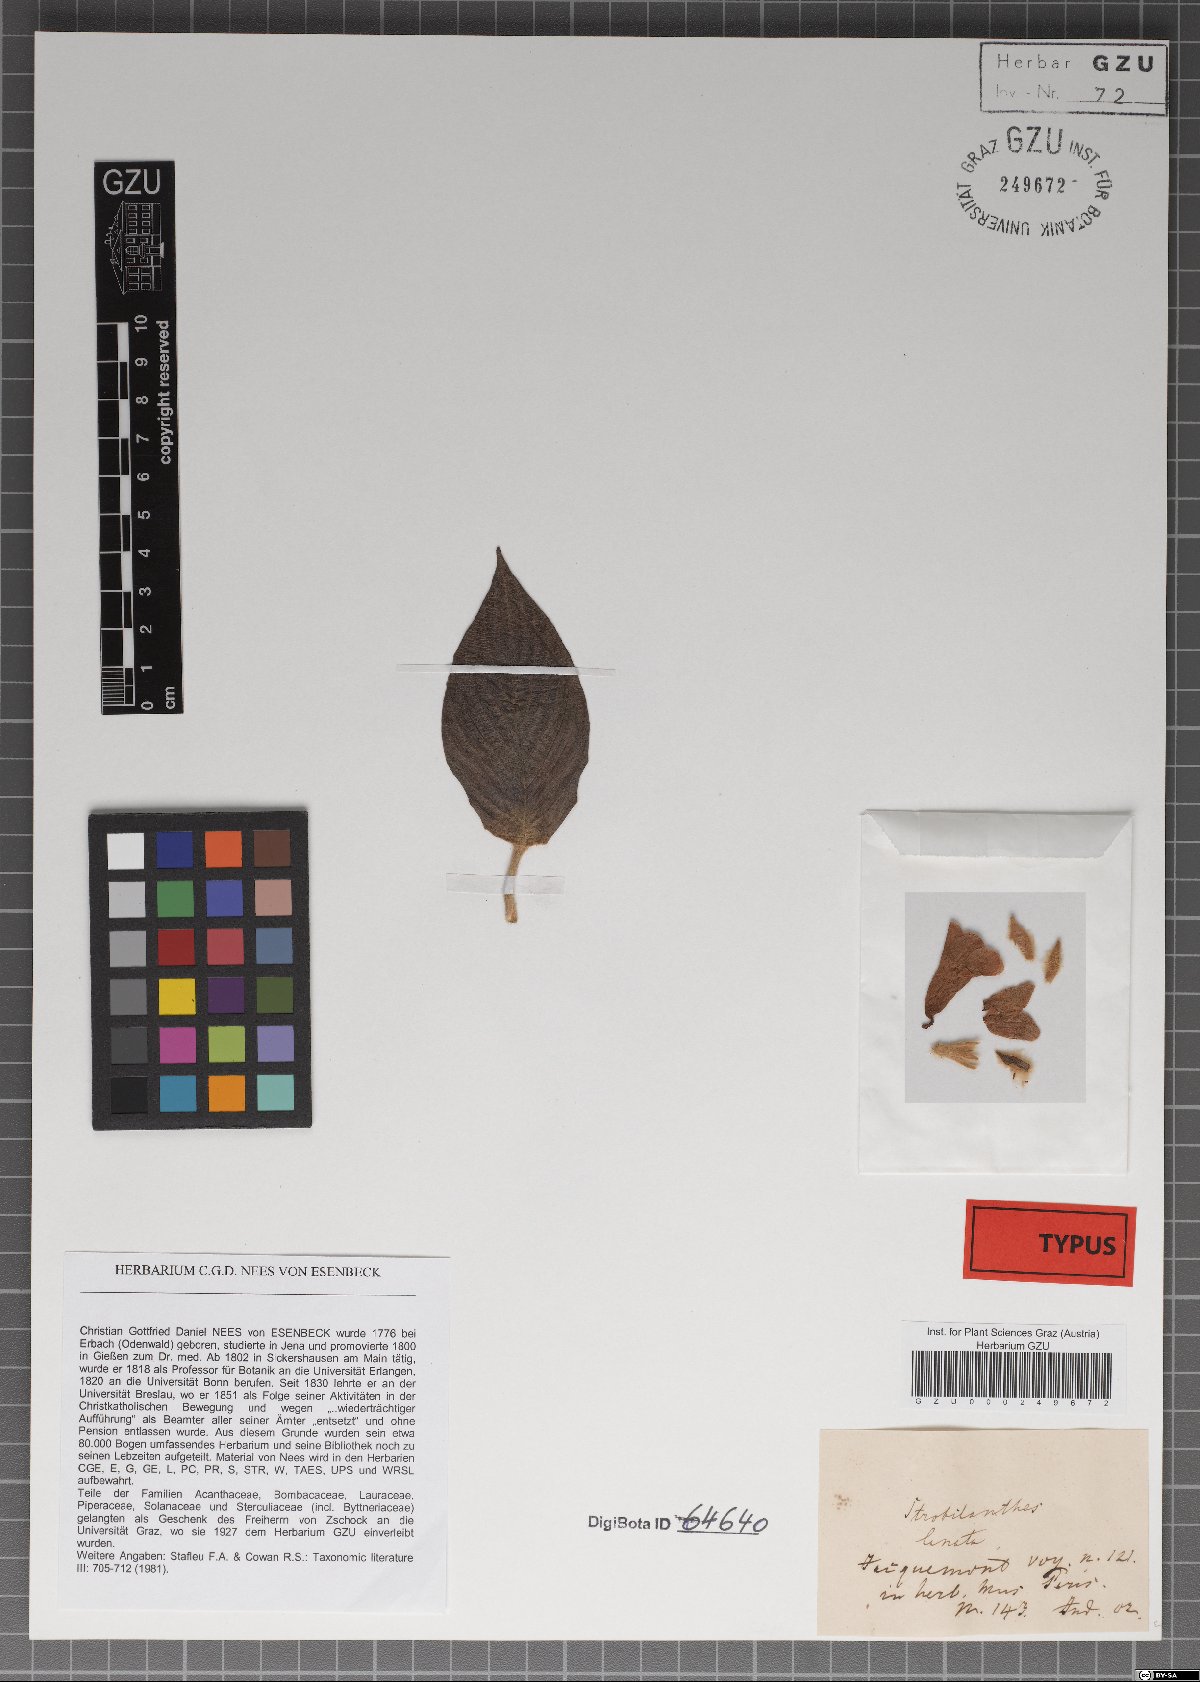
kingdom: Plantae
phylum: Tracheophyta
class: Magnoliopsida
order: Lamiales
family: Acanthaceae
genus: Strobilanthes
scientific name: Strobilanthes lanata
